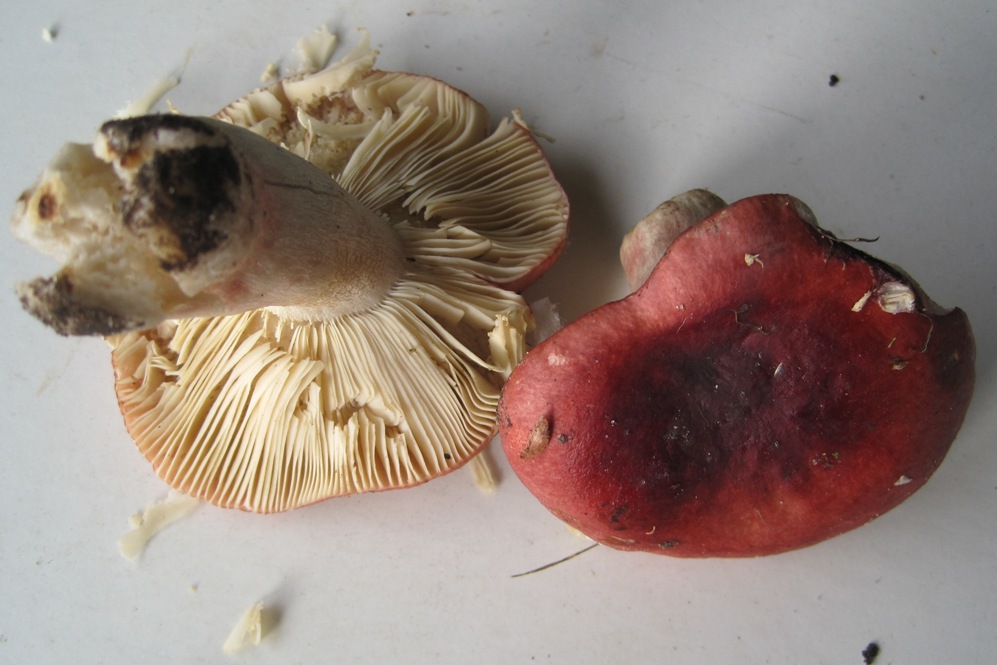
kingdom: Fungi
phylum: Basidiomycota
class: Agaricomycetes
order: Russulales
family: Russulaceae
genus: Russula
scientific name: Russula
